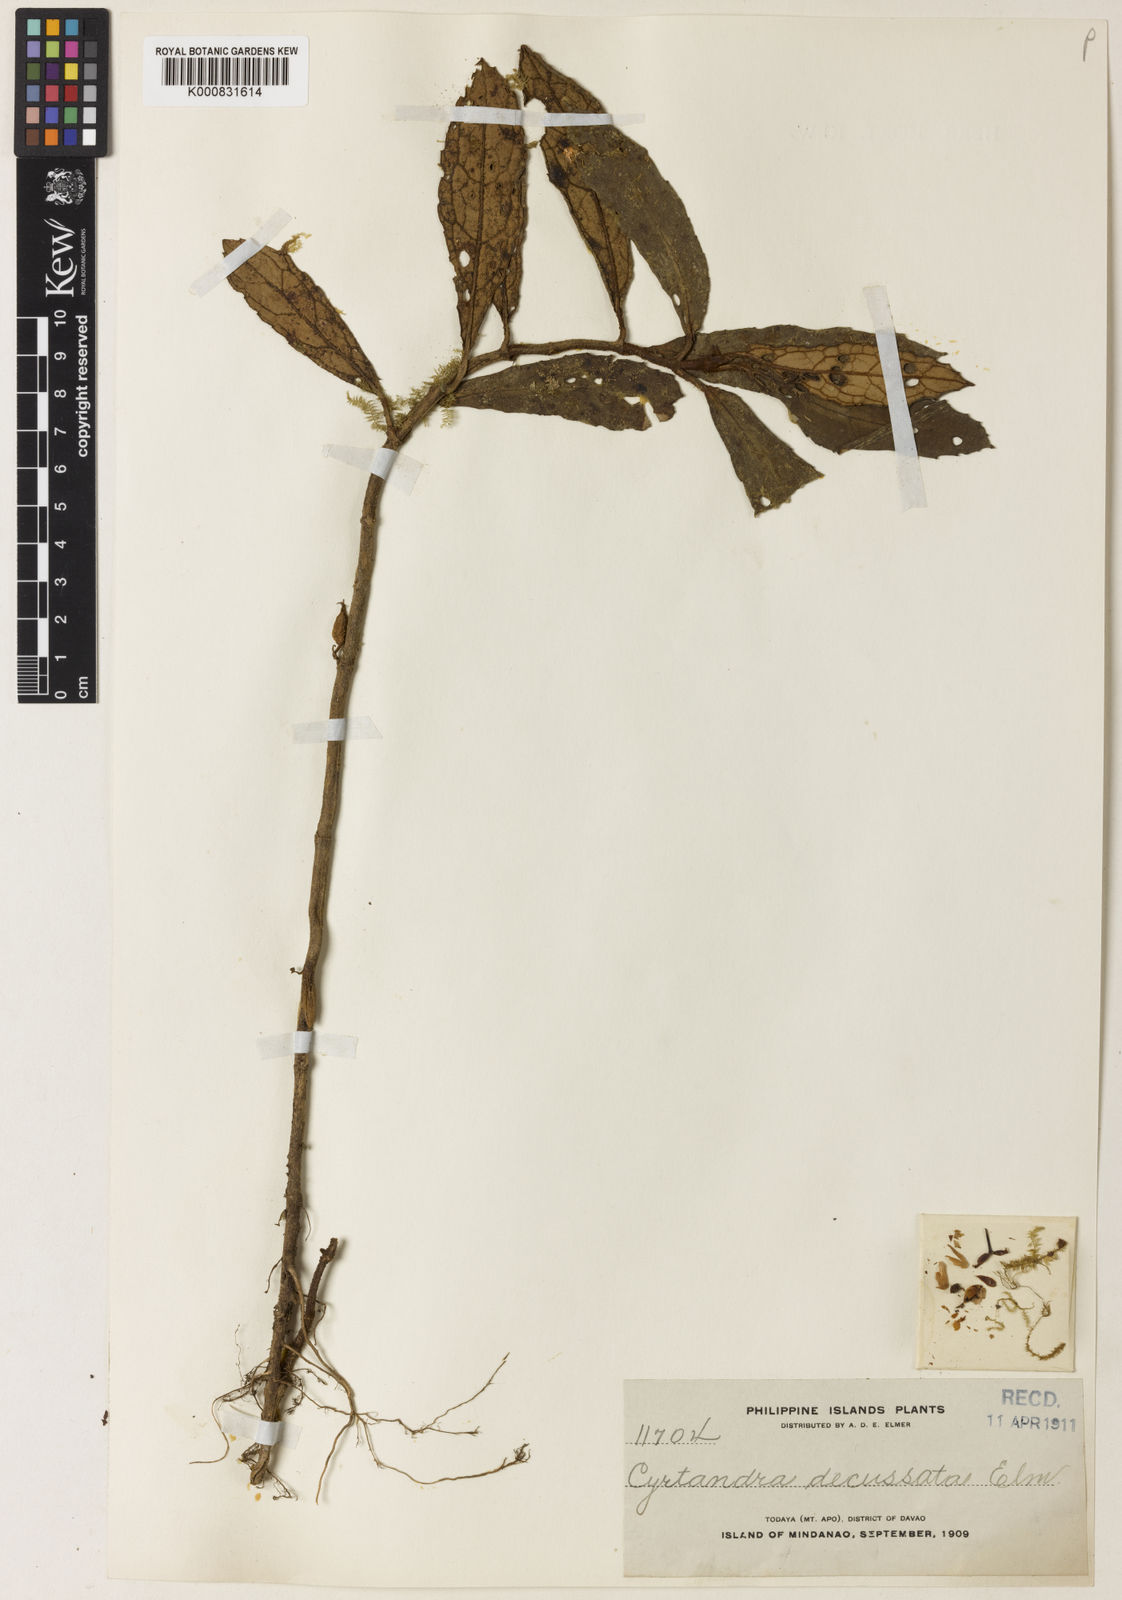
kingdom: Plantae
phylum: Tracheophyta
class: Magnoliopsida
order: Lamiales
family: Gesneriaceae
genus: Cyrtandra
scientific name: Cyrtandra decussata
